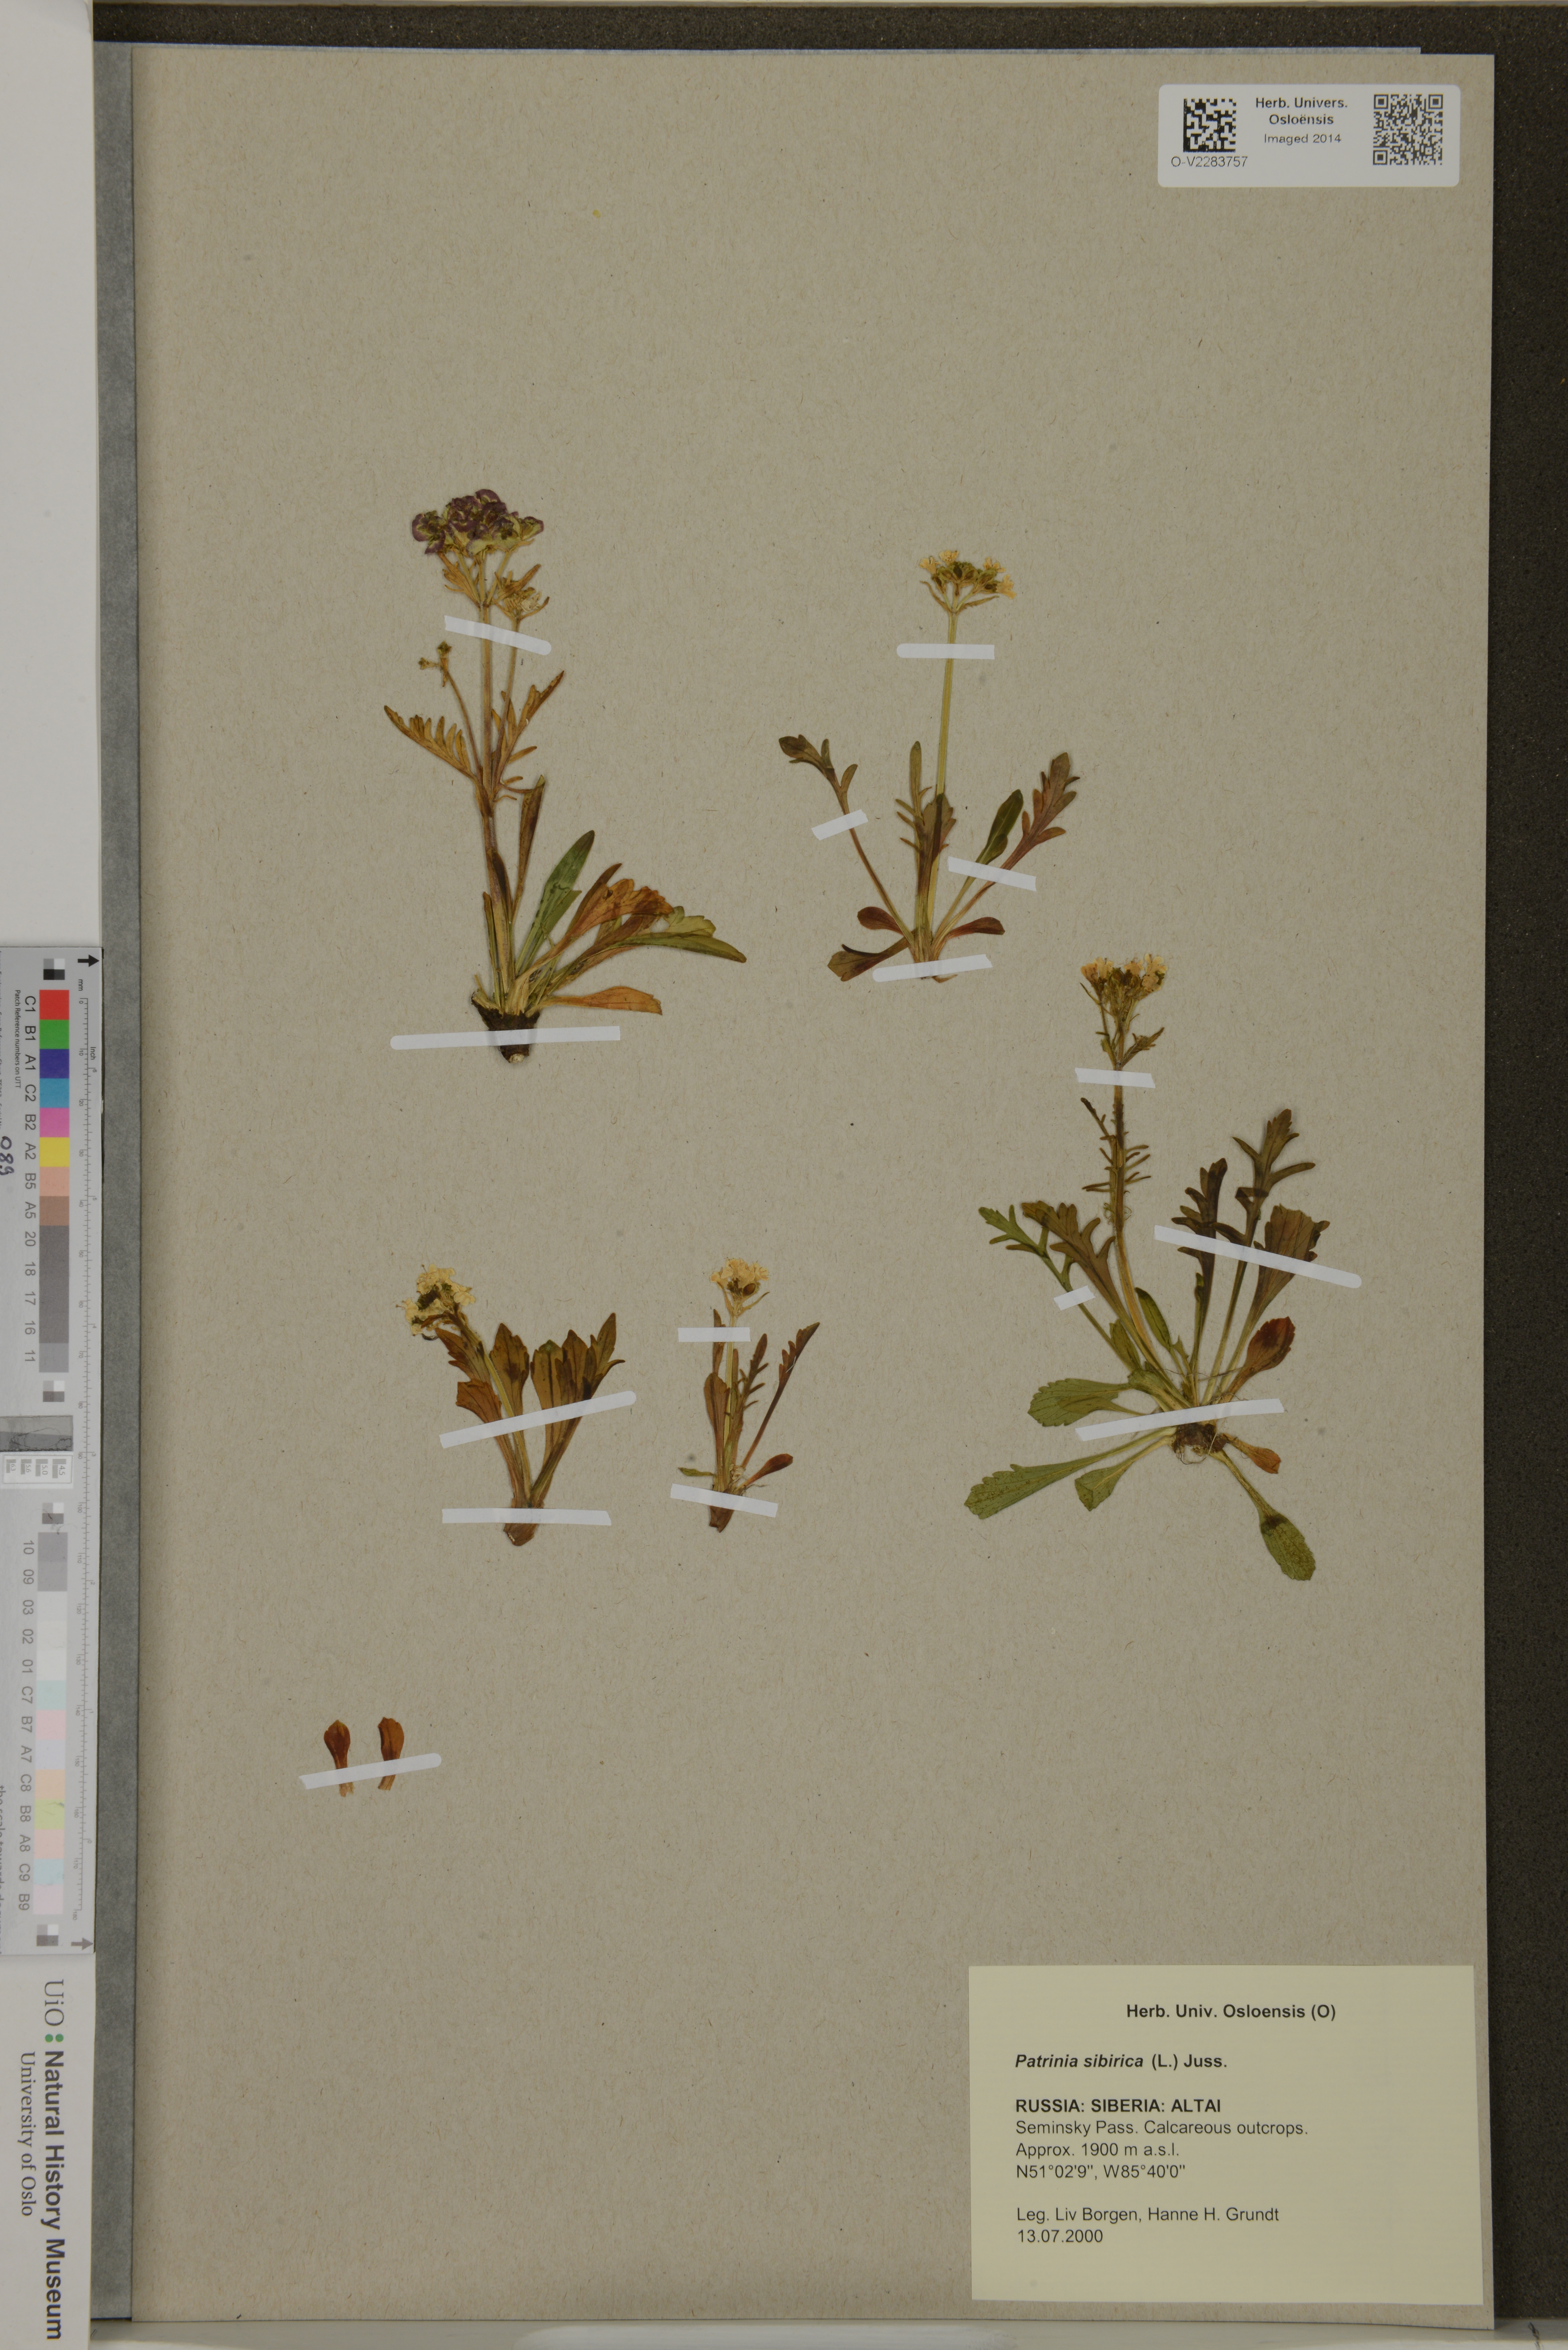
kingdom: Plantae
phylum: Tracheophyta
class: Magnoliopsida
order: Dipsacales
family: Caprifoliaceae
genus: Patrinia
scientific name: Patrinia sibirica
